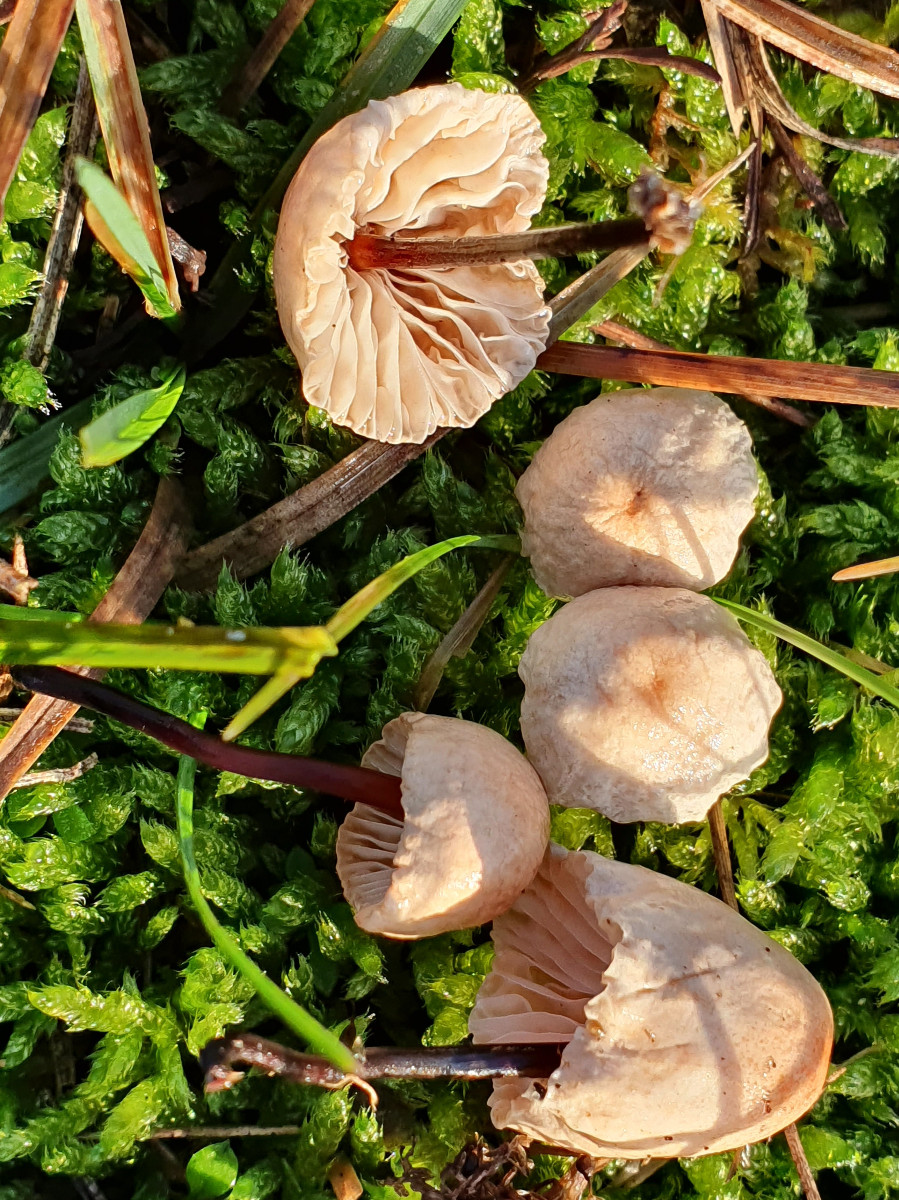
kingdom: Fungi
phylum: Basidiomycota
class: Agaricomycetes
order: Agaricales
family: Omphalotaceae
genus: Mycetinis
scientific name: Mycetinis scorodonius
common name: lille løghat
